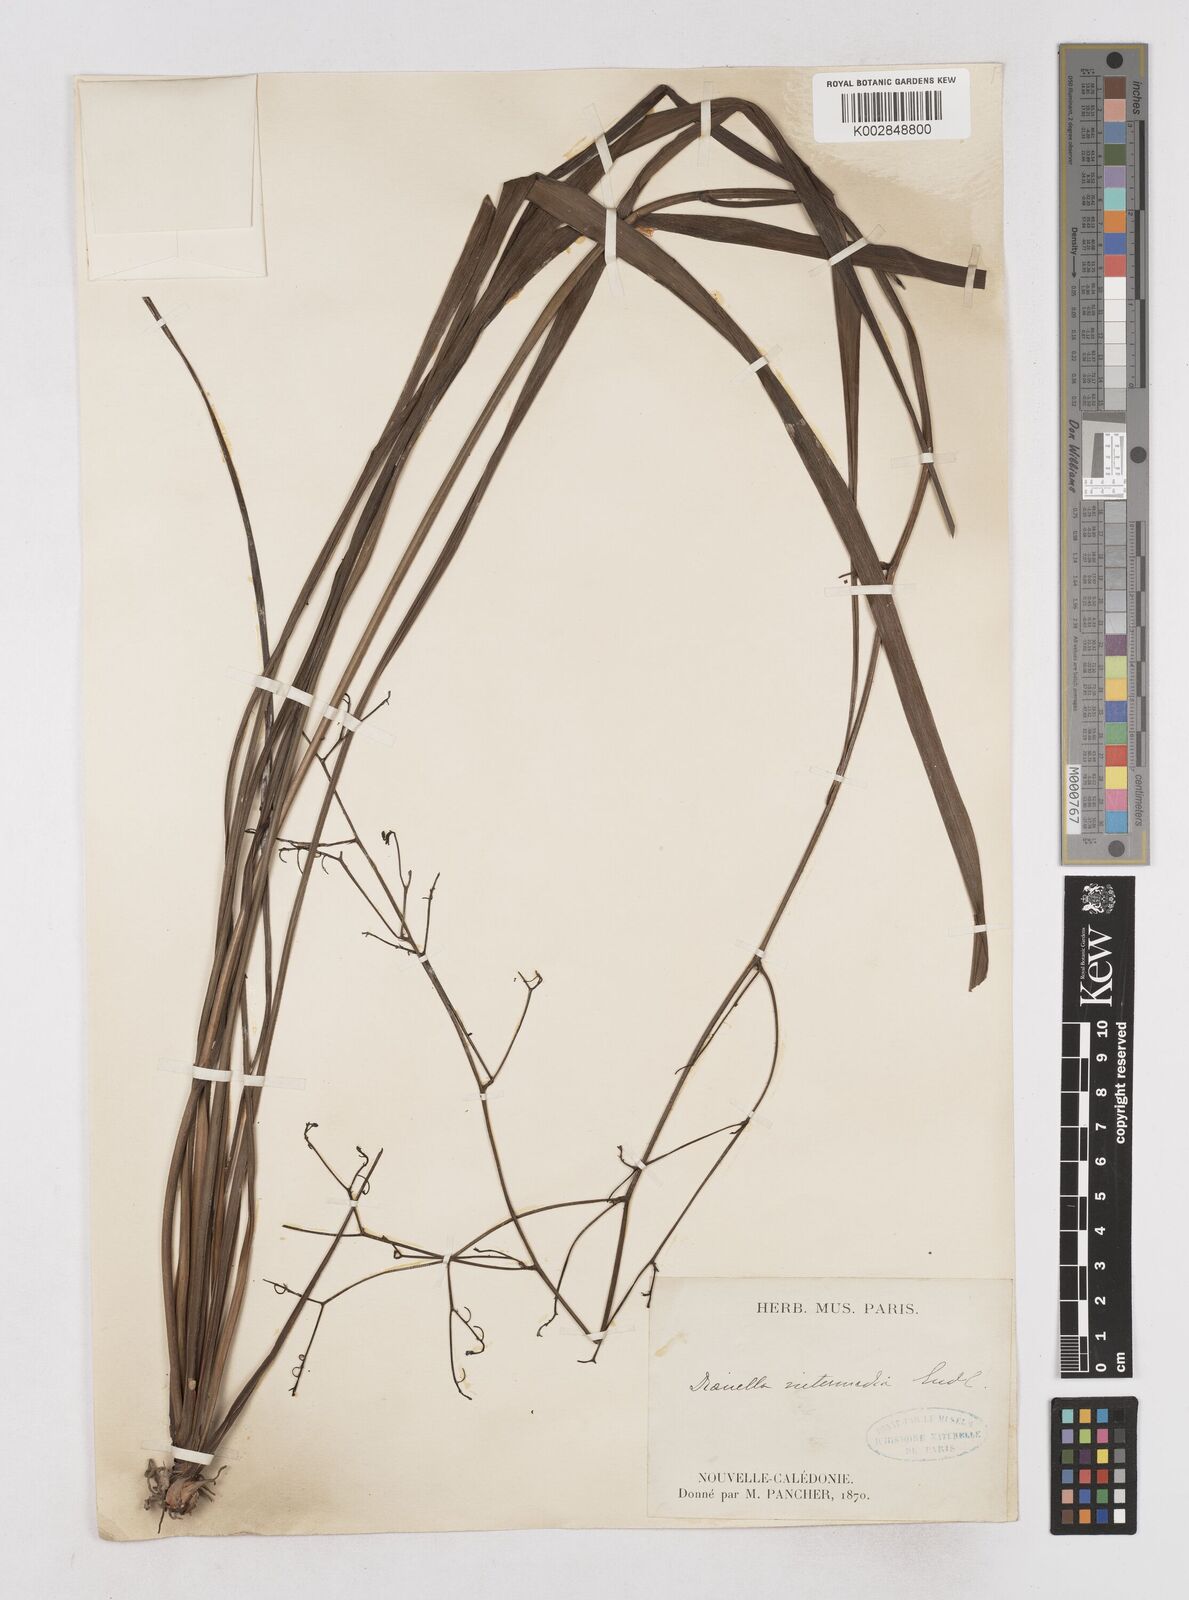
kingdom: Plantae
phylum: Tracheophyta
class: Liliopsida
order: Asparagales
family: Asphodelaceae
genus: Dianella
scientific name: Dianella adenanthera
